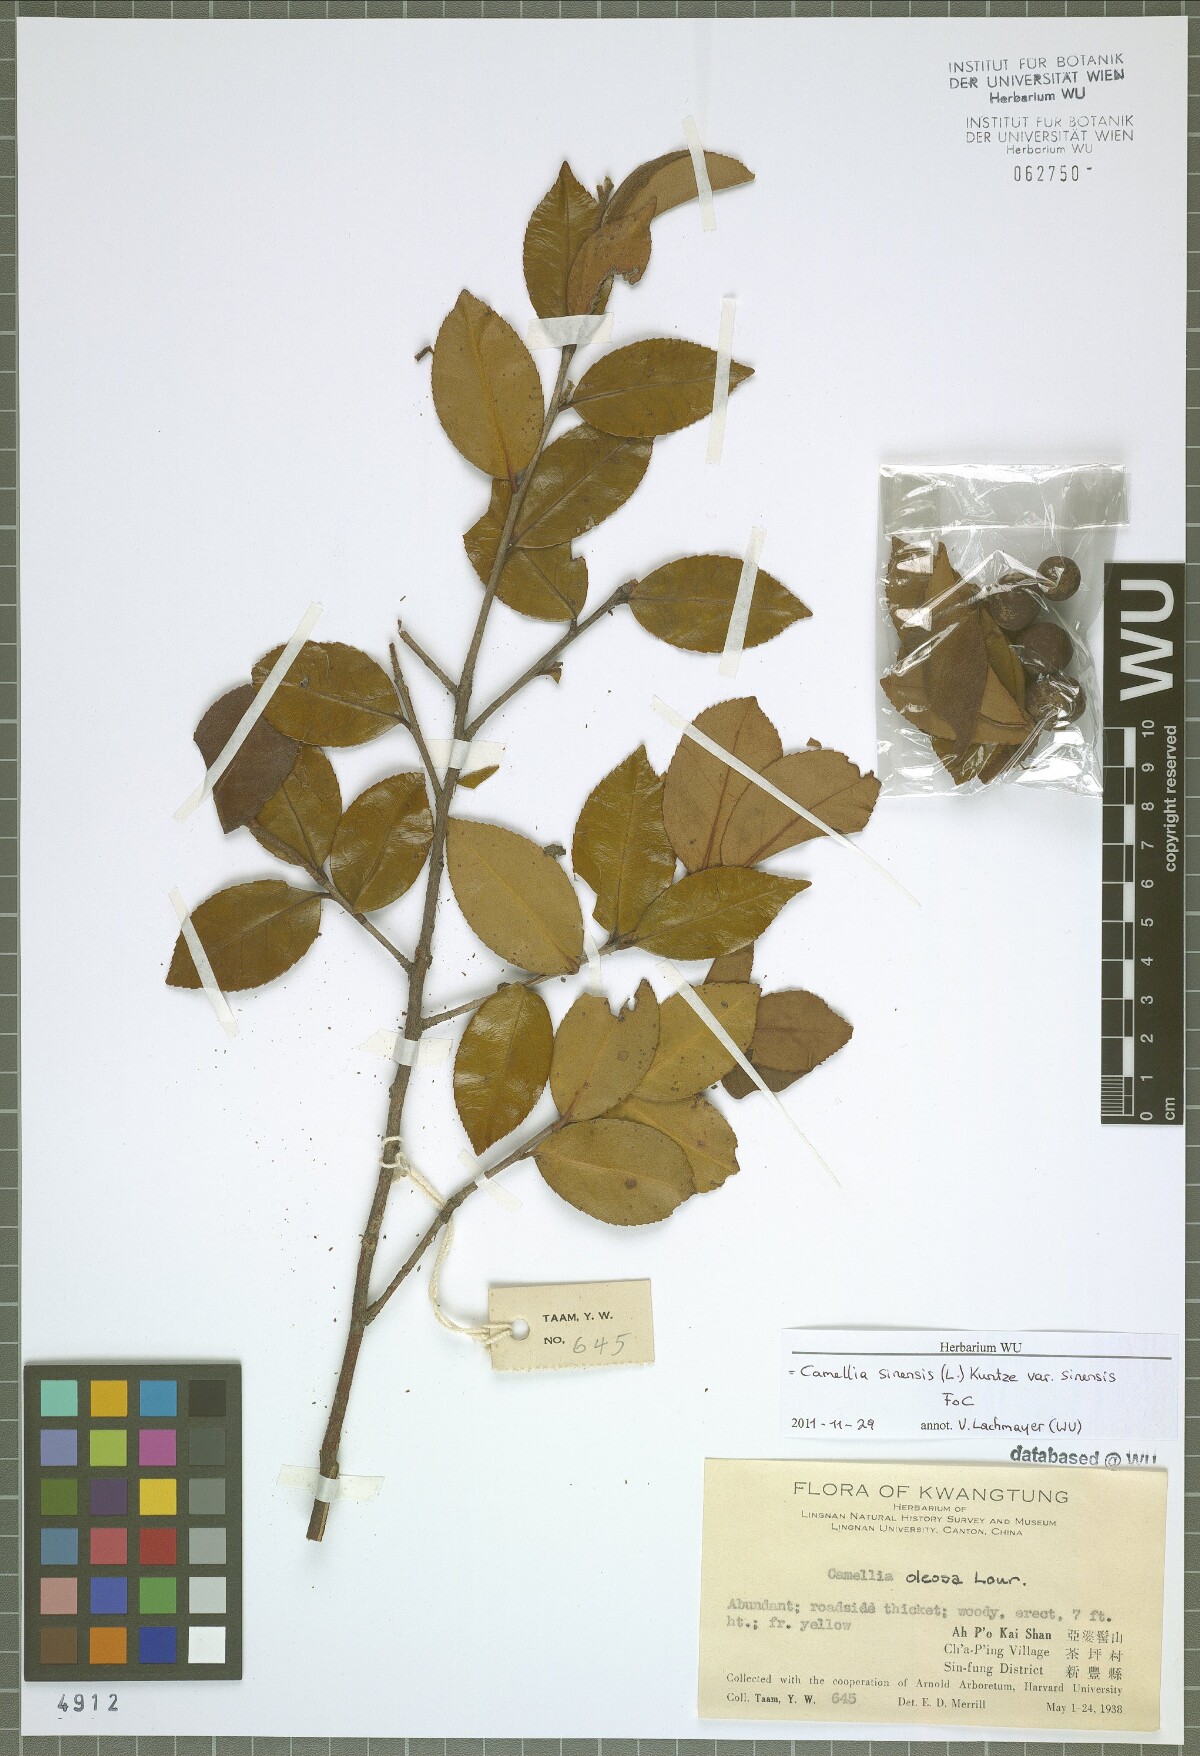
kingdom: Plantae
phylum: Tracheophyta
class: Magnoliopsida
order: Ericales
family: Theaceae
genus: Camellia
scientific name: Camellia sinensis
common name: Tea
